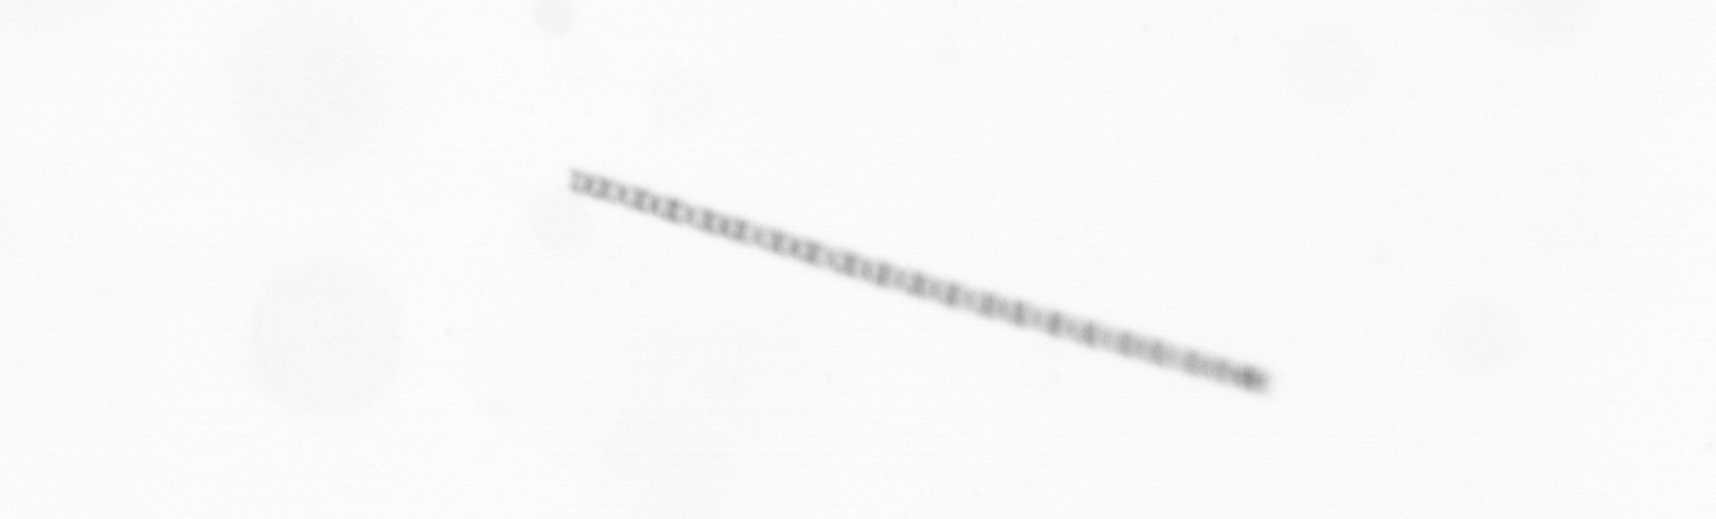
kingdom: Chromista
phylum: Ochrophyta
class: Bacillariophyceae
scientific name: Bacillariophyceae
